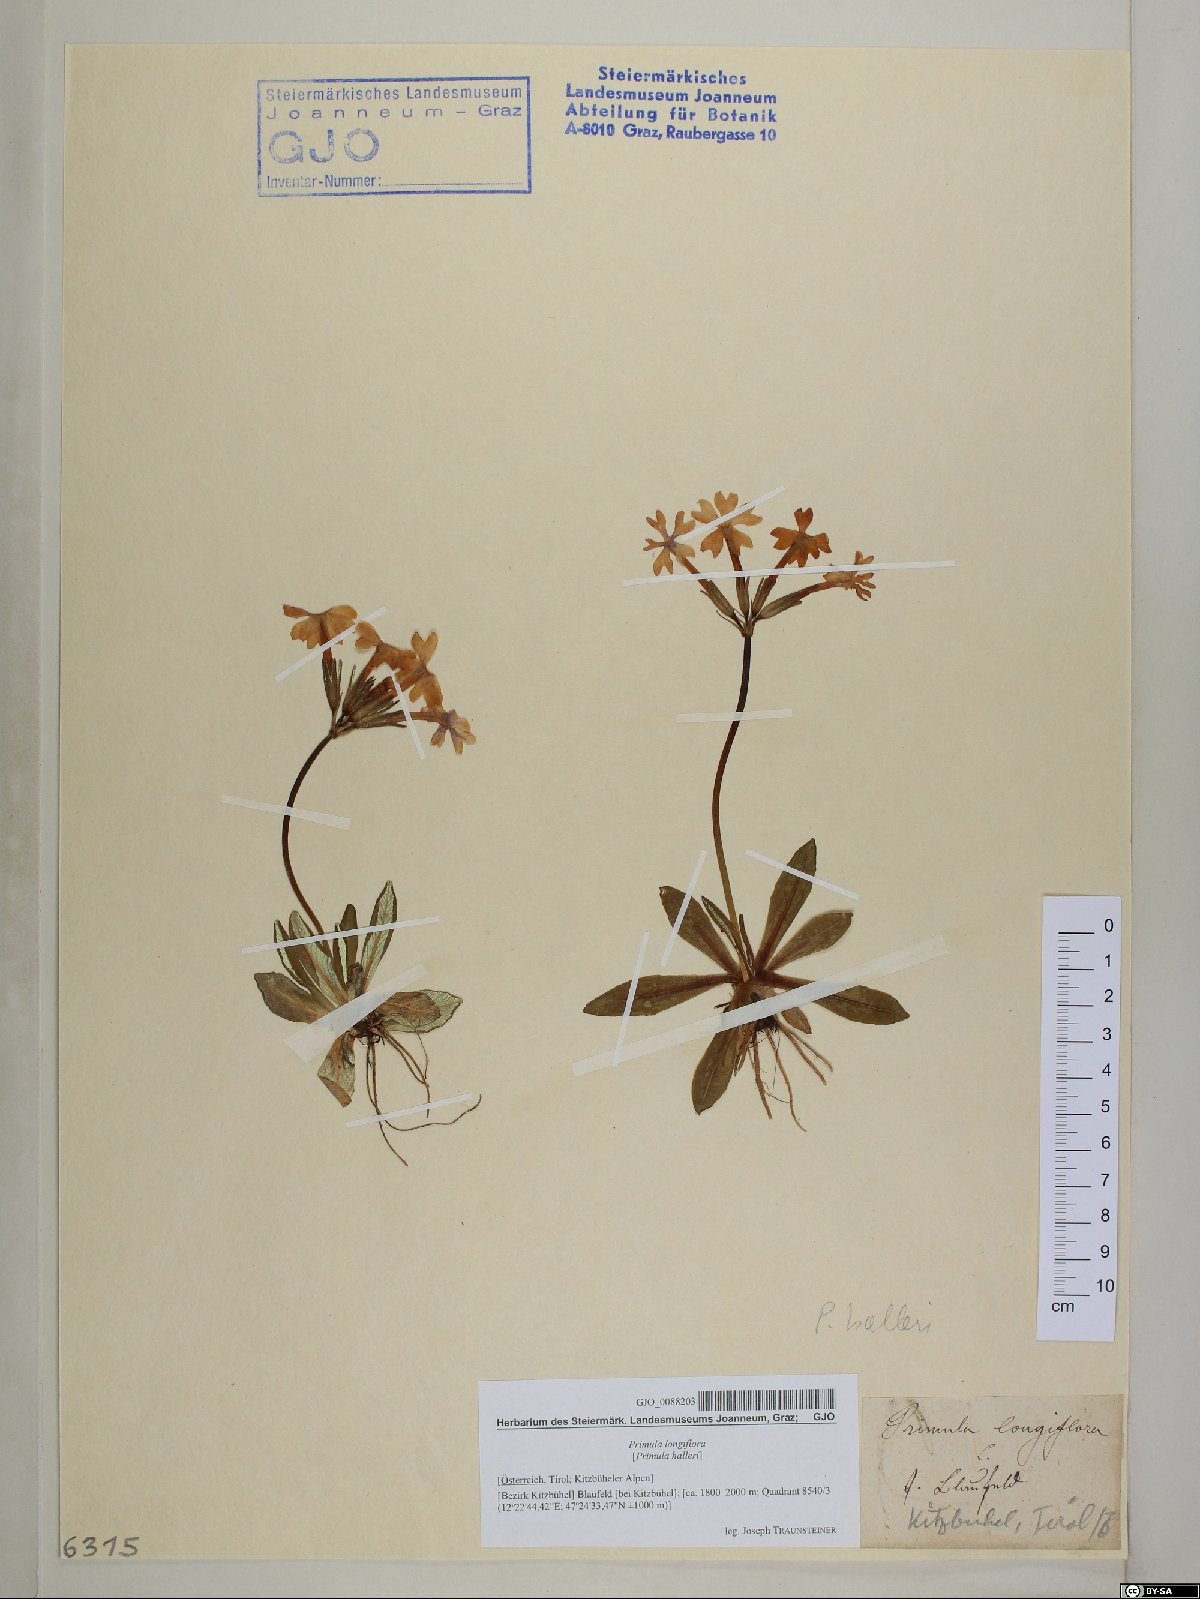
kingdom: Plantae
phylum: Tracheophyta
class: Magnoliopsida
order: Ericales
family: Primulaceae
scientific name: Primulaceae
